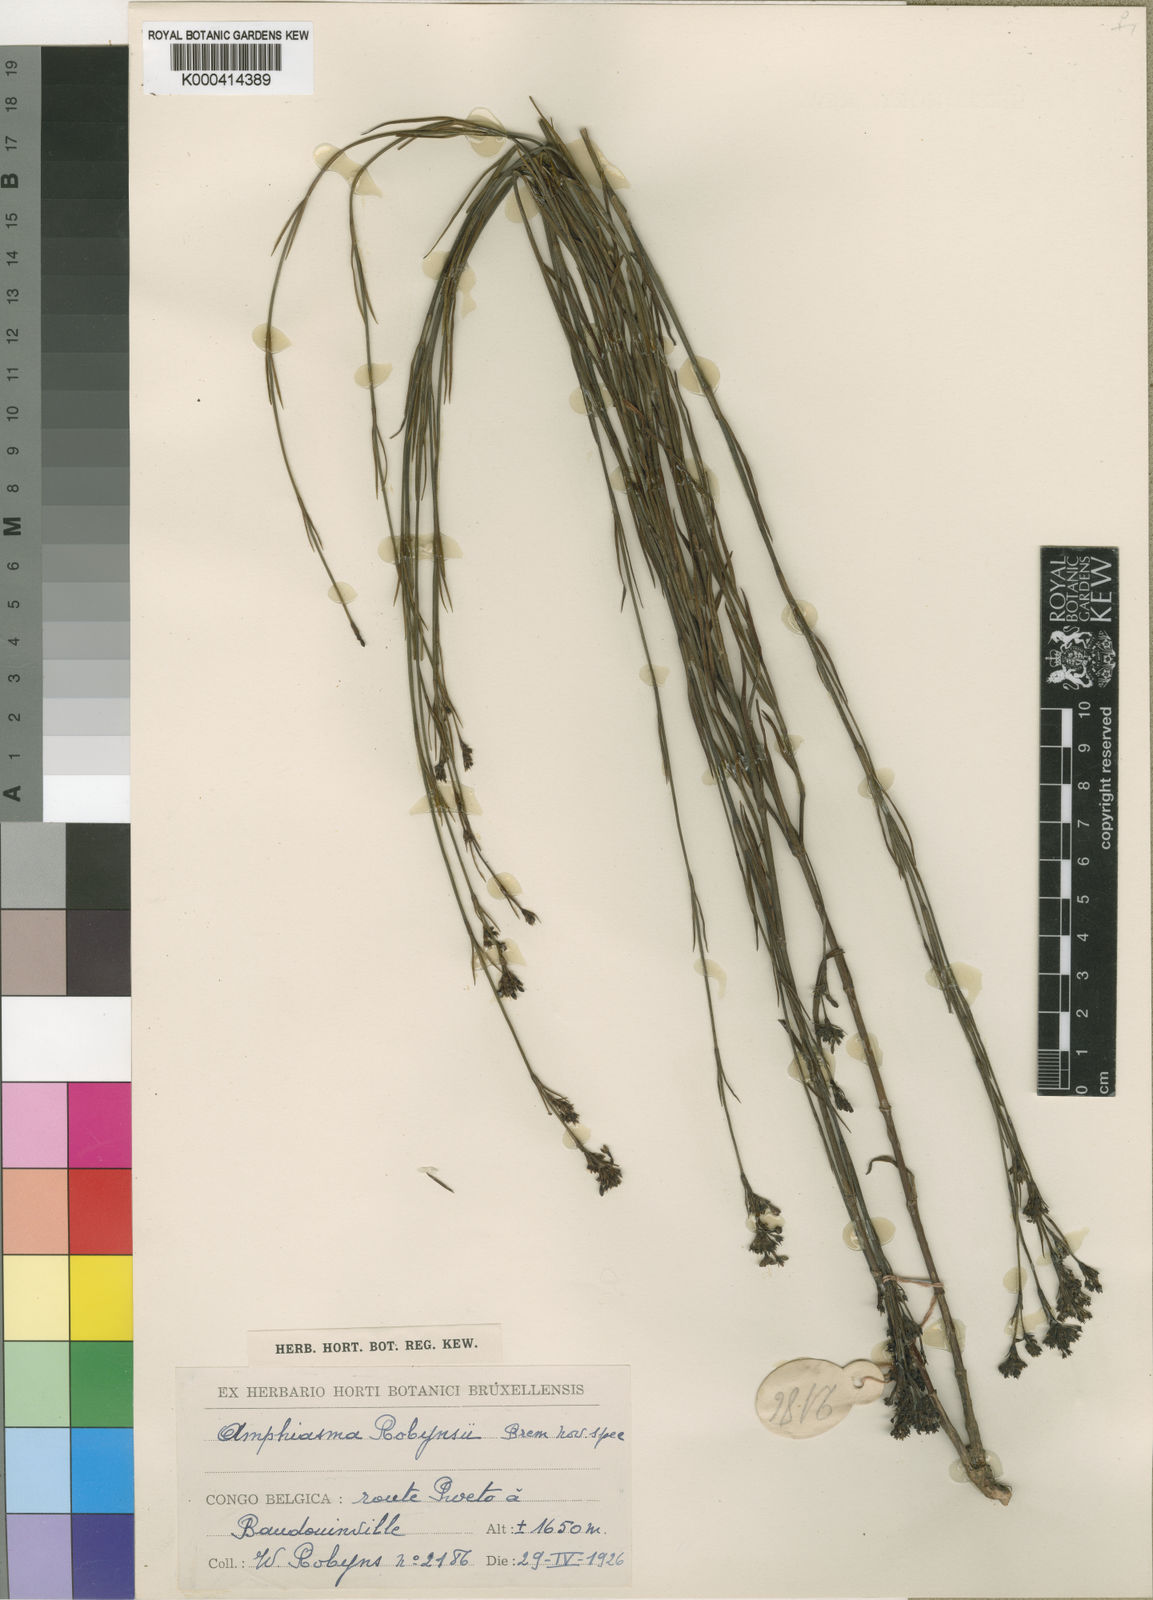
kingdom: Plantae
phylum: Tracheophyta
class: Magnoliopsida
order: Gentianales
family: Rubiaceae
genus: Amphiasma
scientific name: Amphiasma robijnsii
